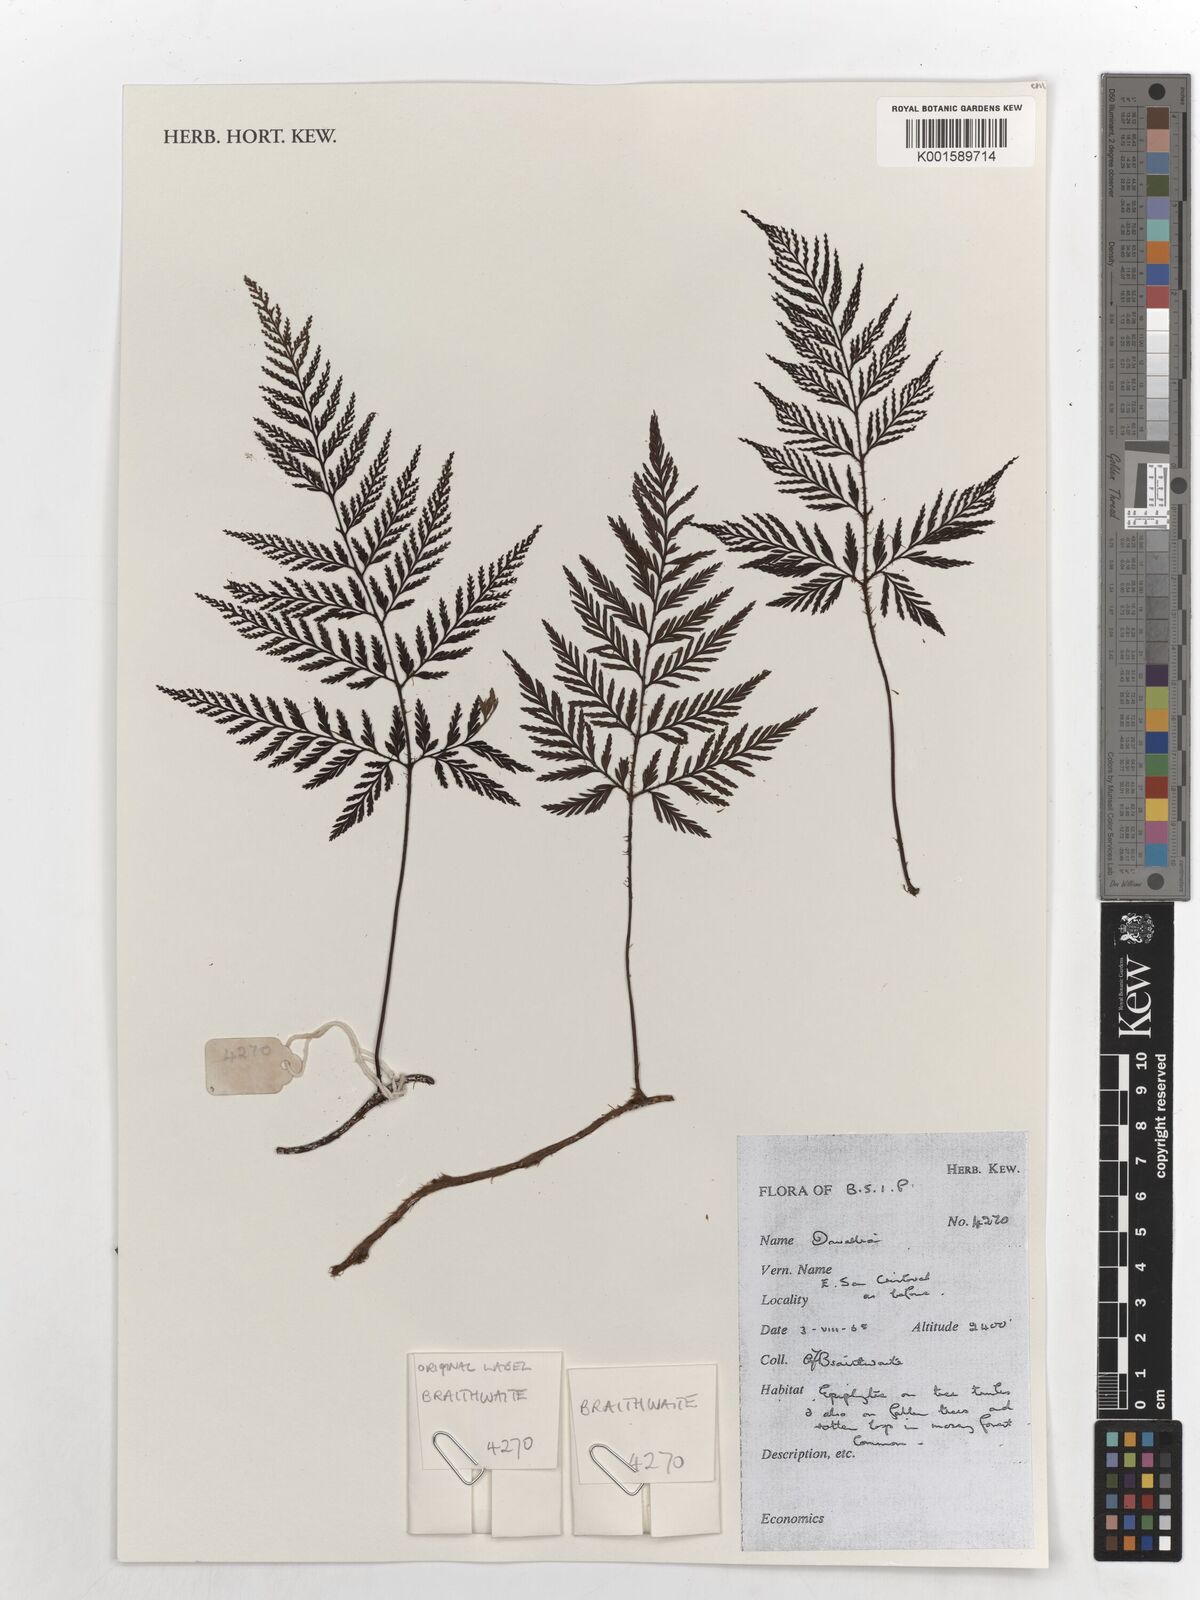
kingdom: Plantae
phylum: Tracheophyta
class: Polypodiopsida
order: Polypodiales
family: Davalliaceae
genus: Davallia
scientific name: Davallia
